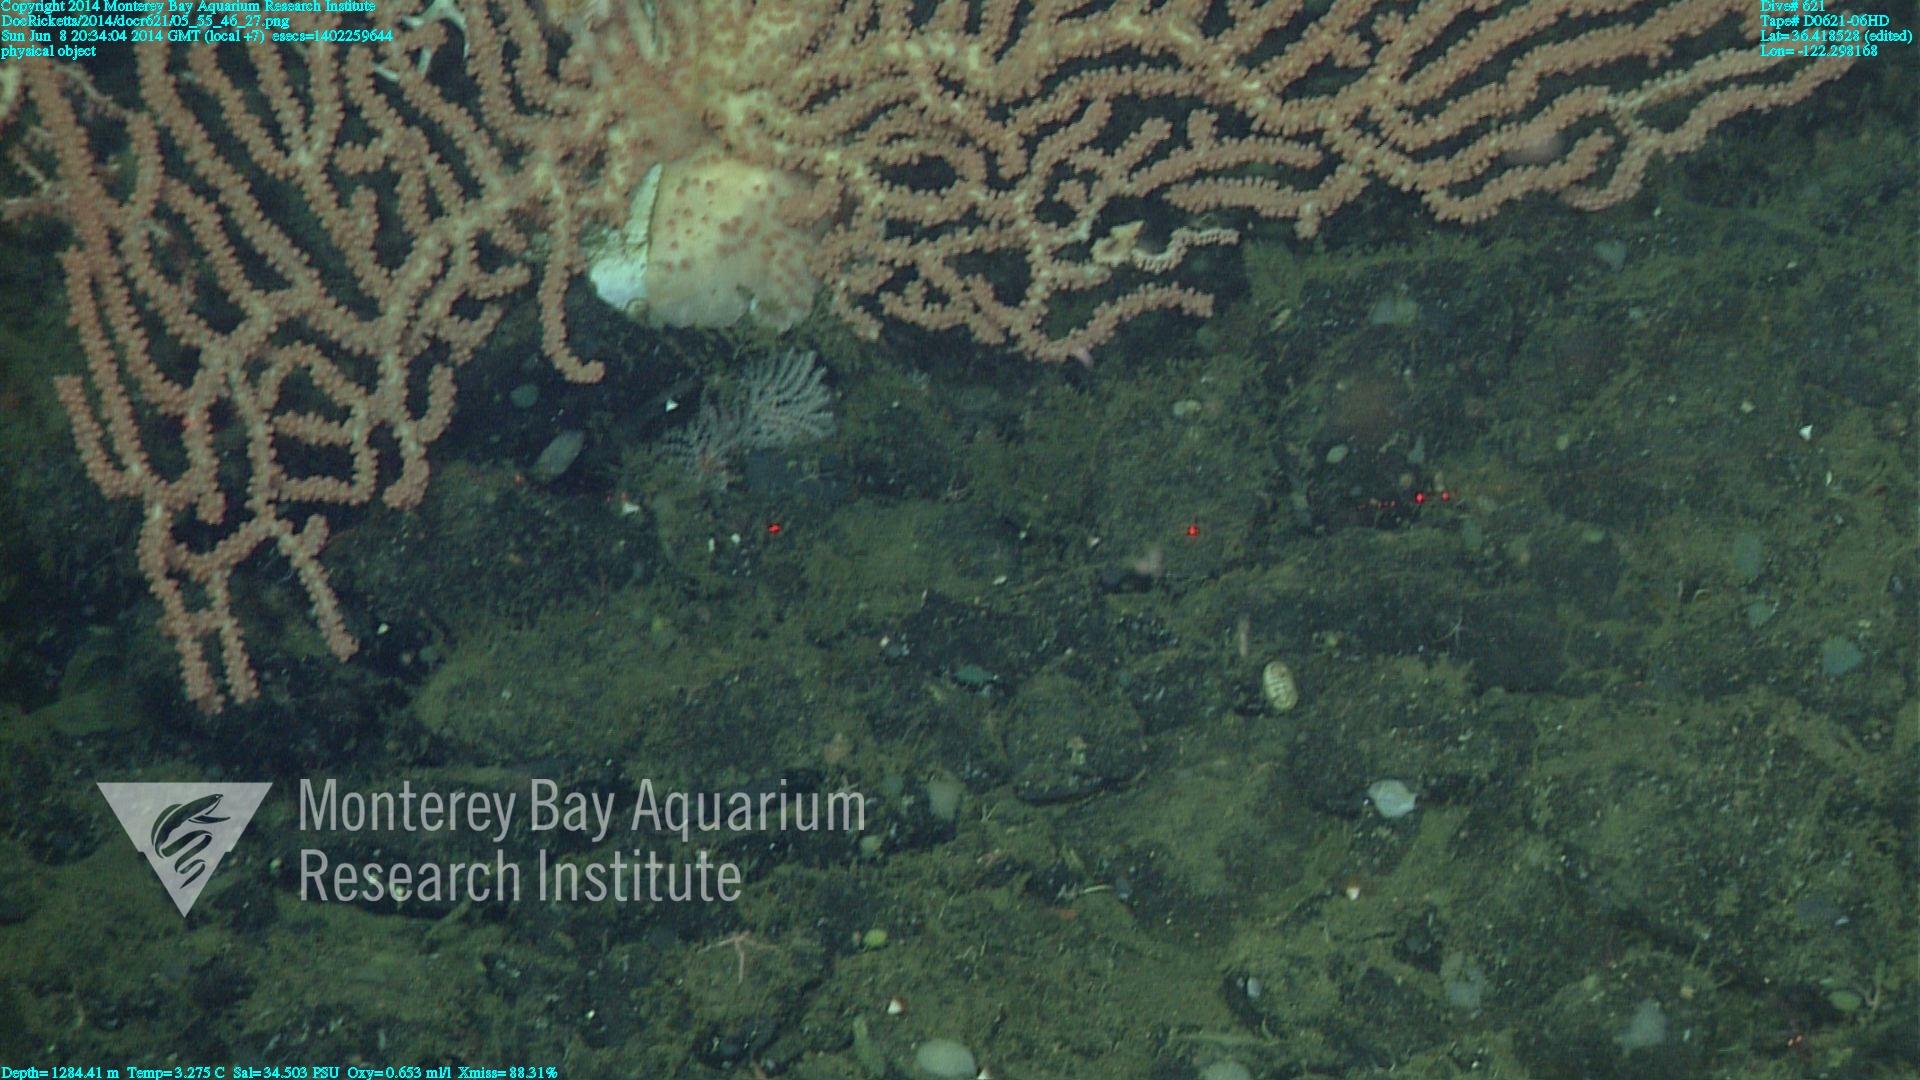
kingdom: Animalia
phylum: Cnidaria
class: Anthozoa
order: Scleralcyonacea
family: Keratoisididae
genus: Keratoisis
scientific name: Keratoisis
